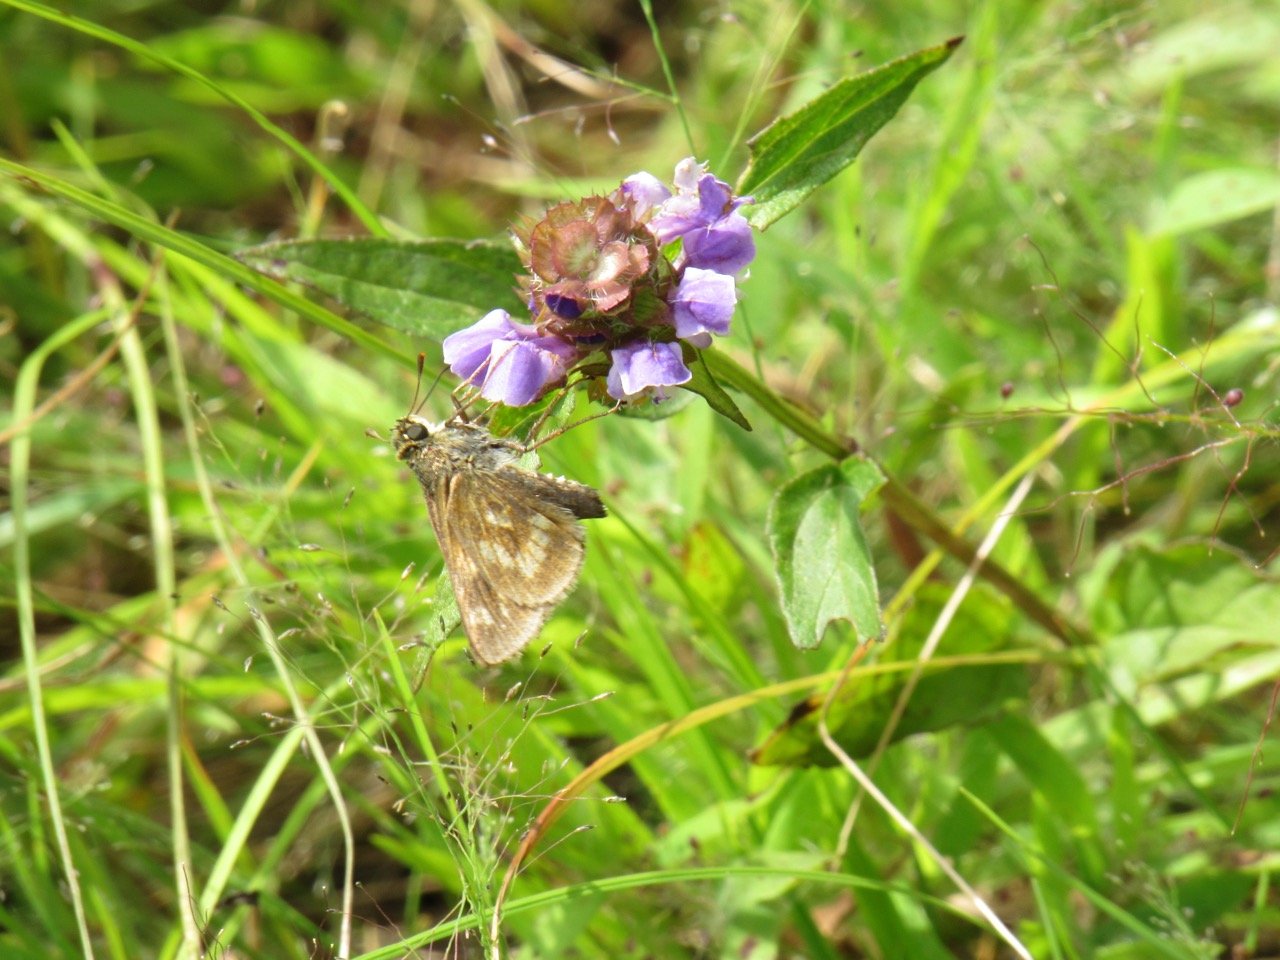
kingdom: Animalia
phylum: Arthropoda
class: Insecta
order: Lepidoptera
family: Hesperiidae
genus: Polites
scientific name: Polites
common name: Long Dash Skipper
